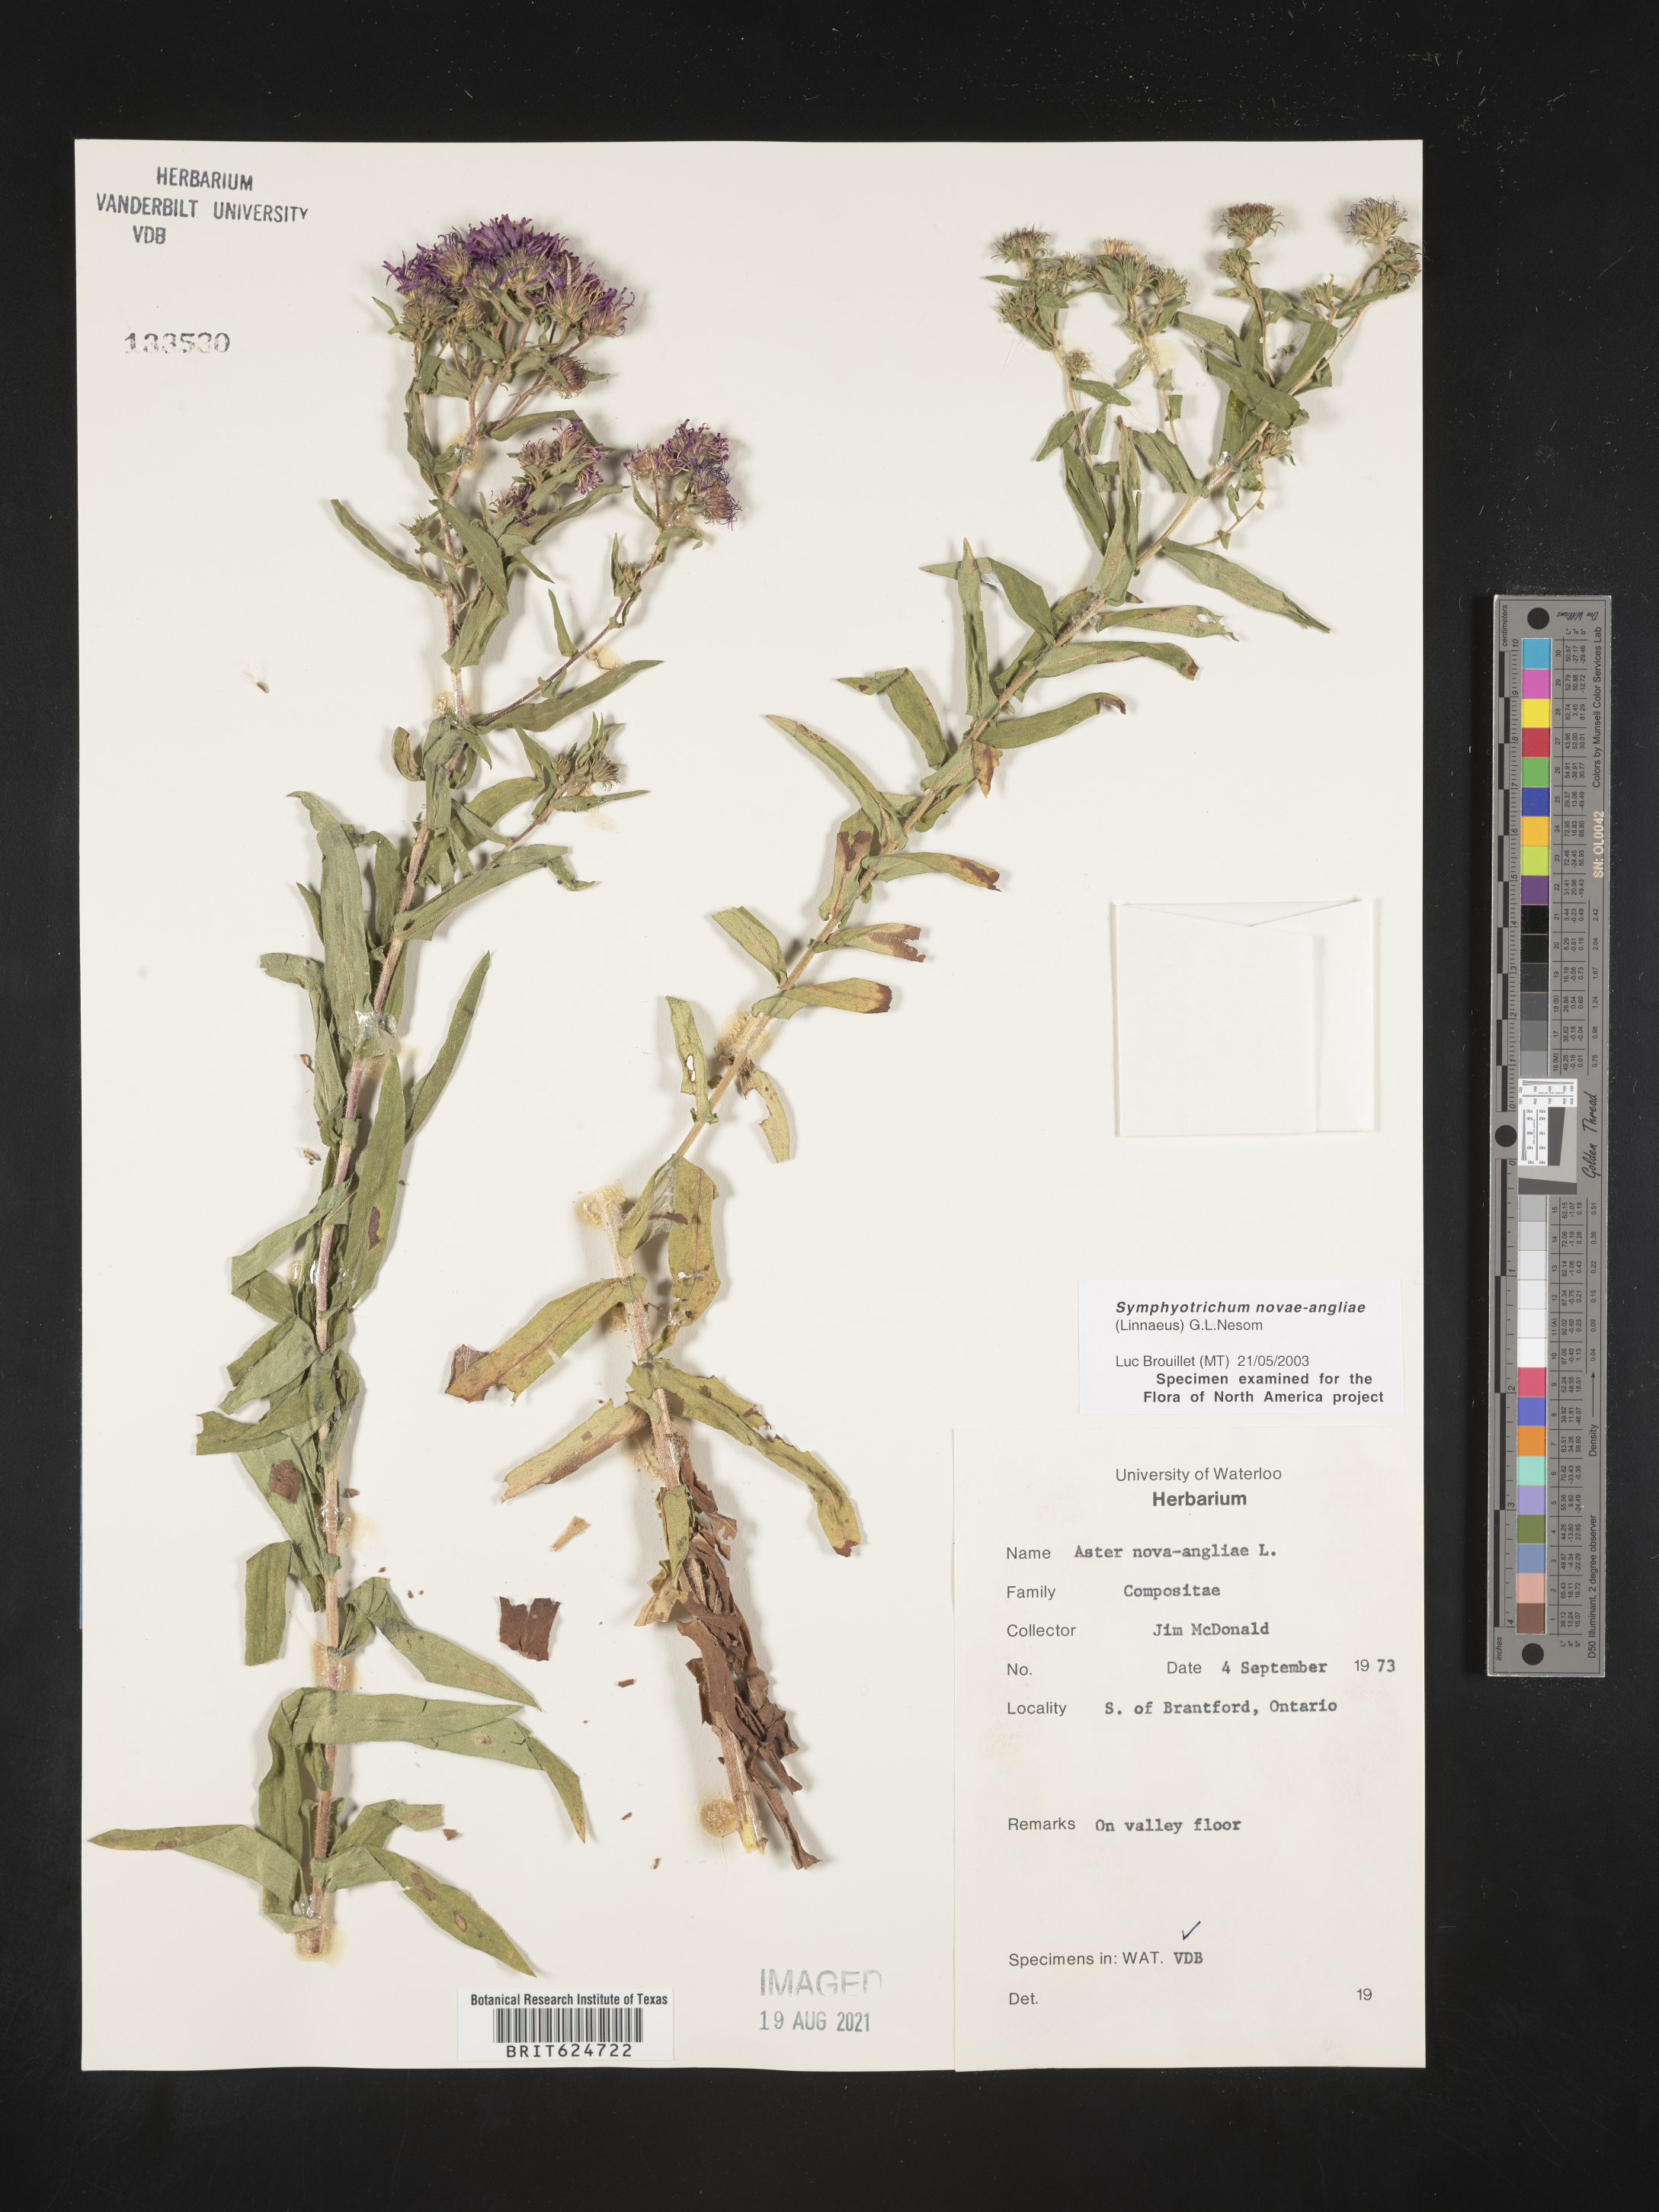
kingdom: Plantae
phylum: Tracheophyta
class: Magnoliopsida
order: Asterales
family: Asteraceae
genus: Symphyotrichum
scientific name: Symphyotrichum novae-angliae
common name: Michaelmas daisy
